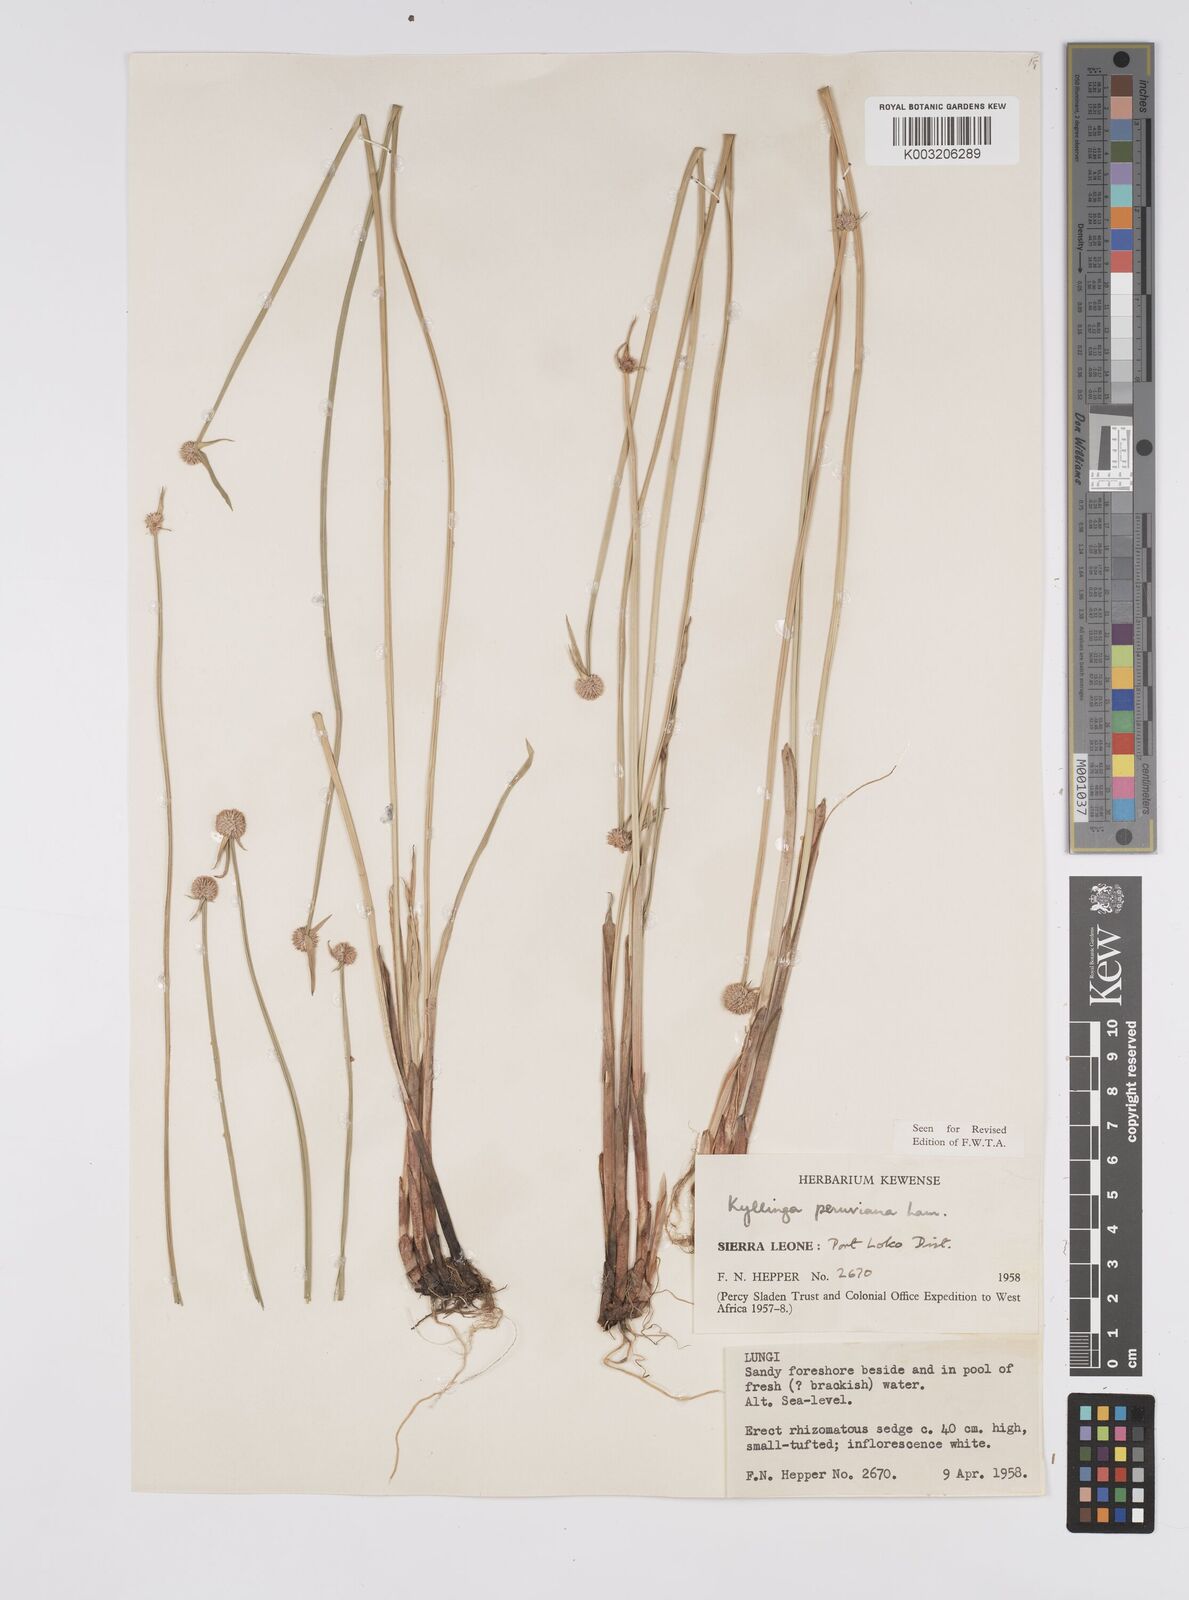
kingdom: Plantae
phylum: Tracheophyta
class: Liliopsida
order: Poales
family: Cyperaceae
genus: Cyperus
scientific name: Cyperus obtusatus
